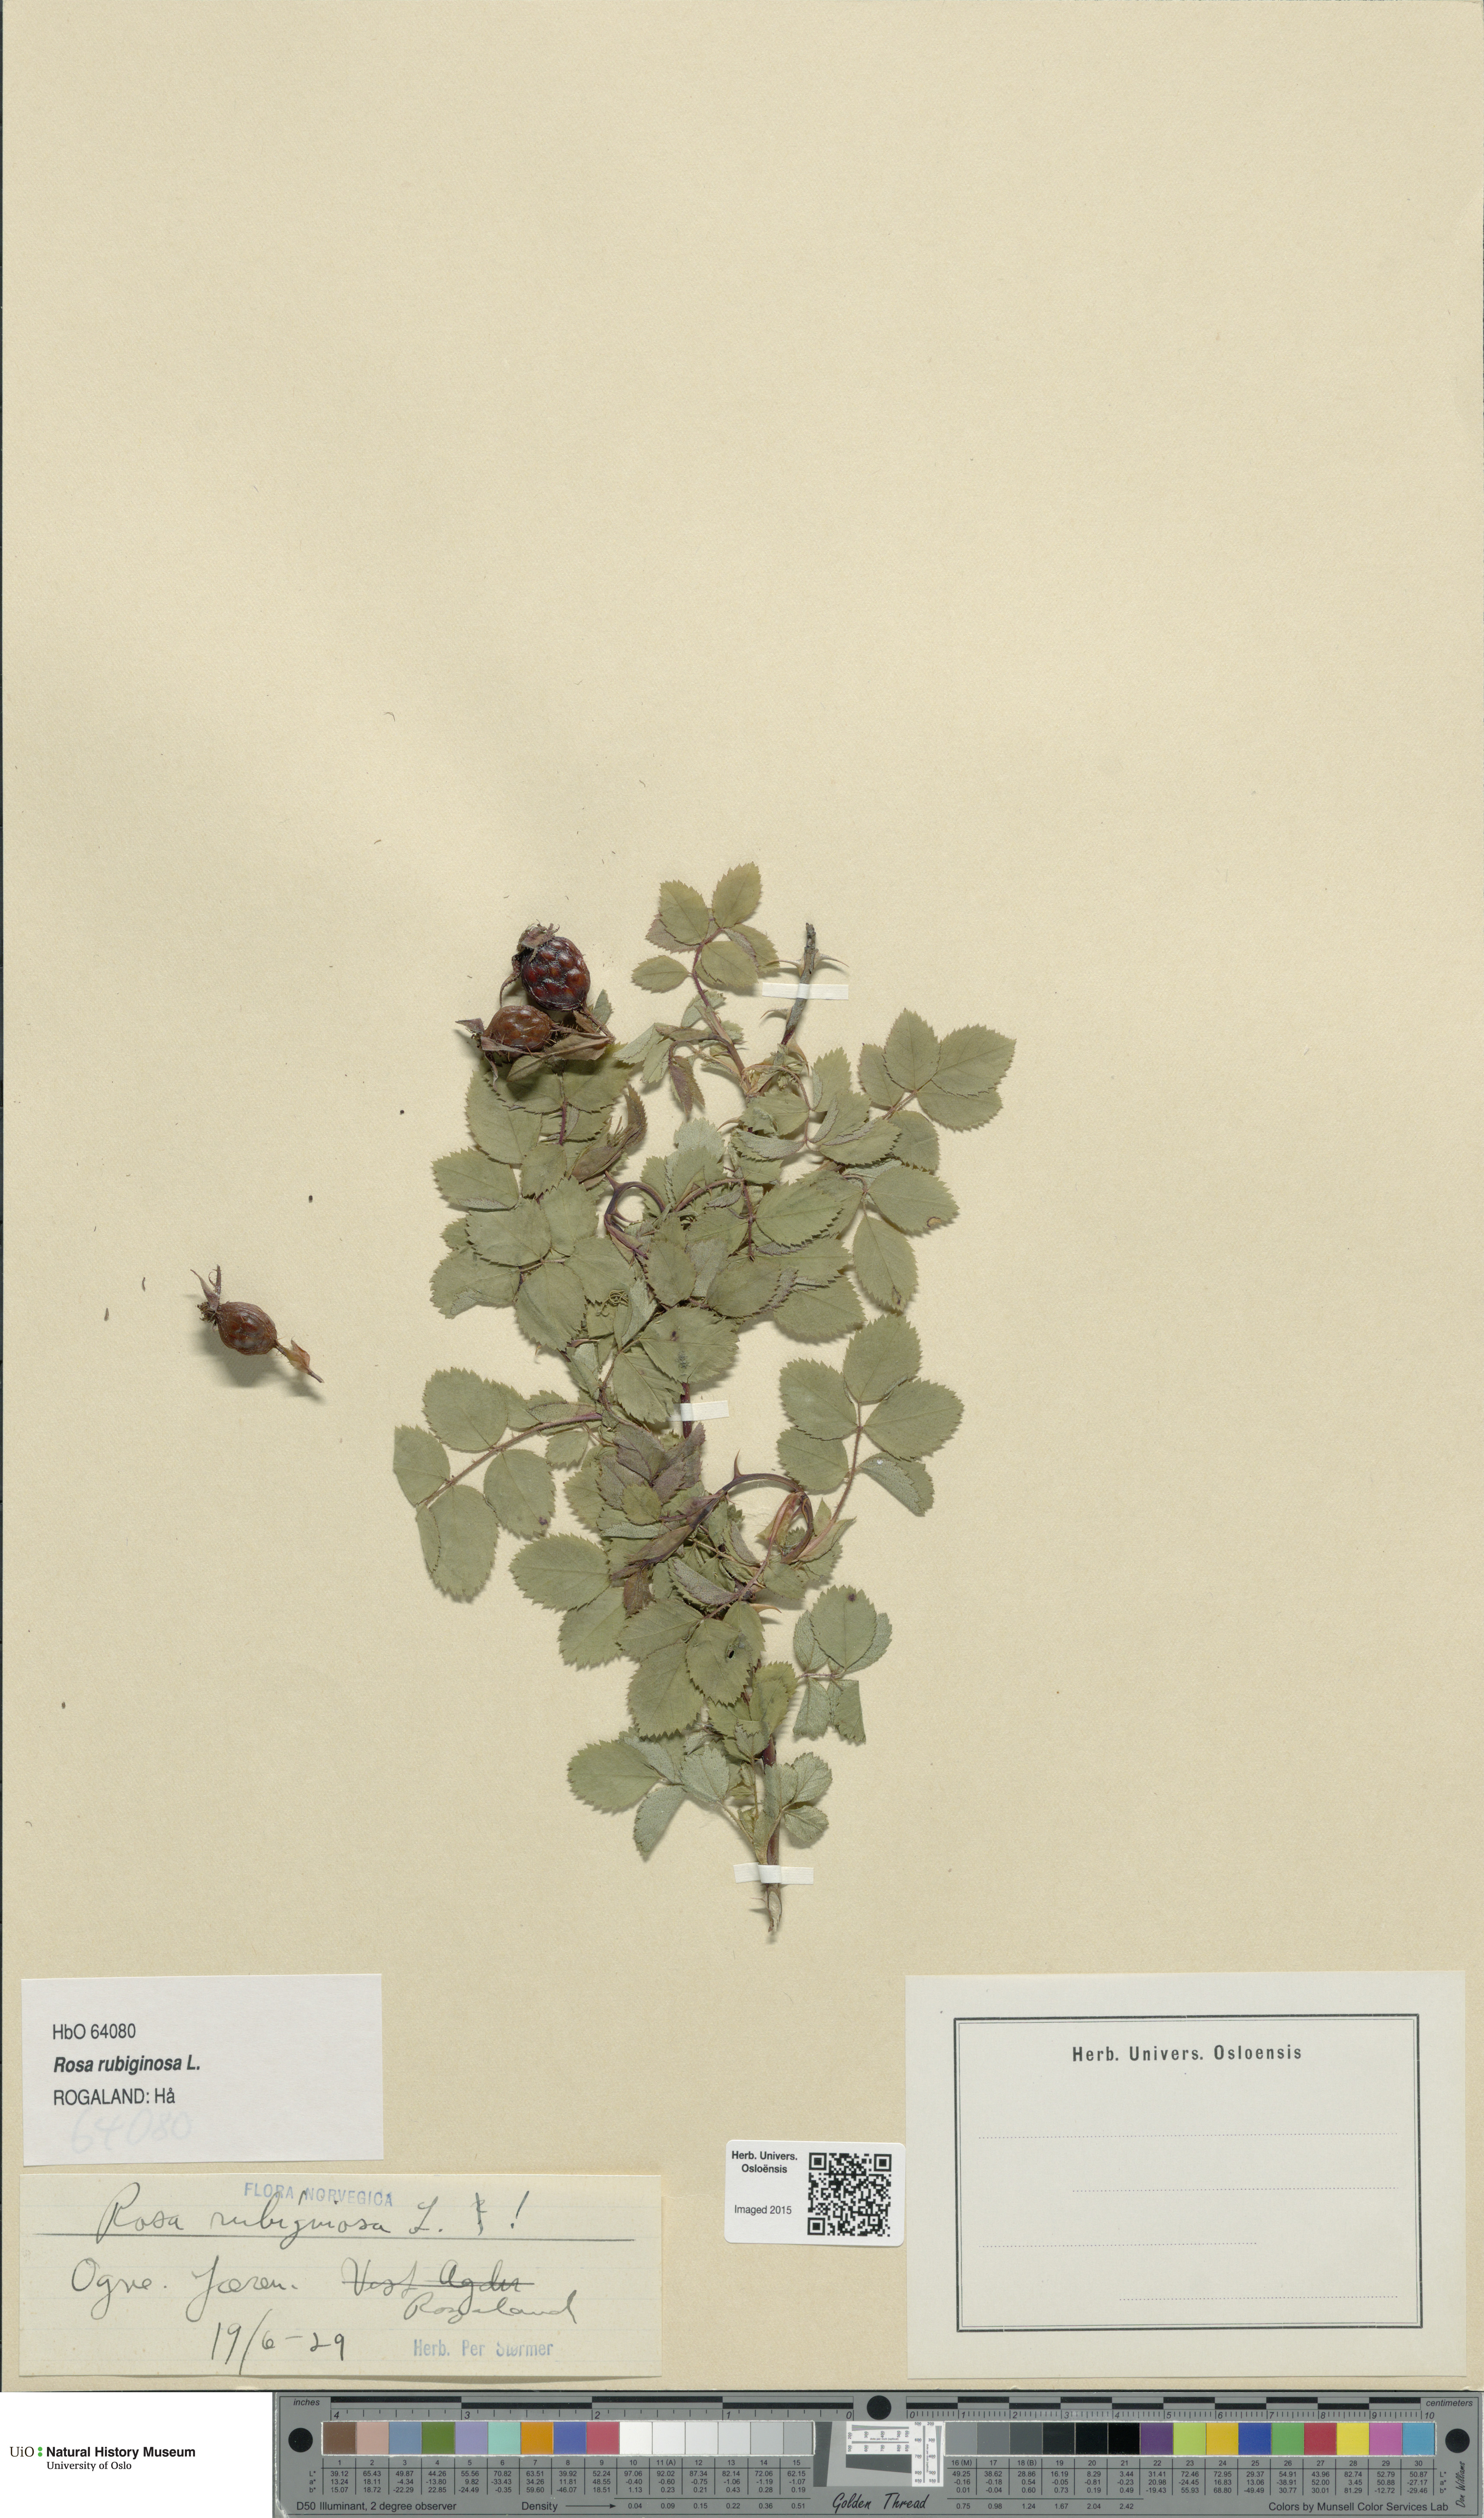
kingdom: Plantae
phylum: Tracheophyta
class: Magnoliopsida
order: Rosales
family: Rosaceae
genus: Rosa
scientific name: Rosa rubiginosa
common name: Sweet-briar
